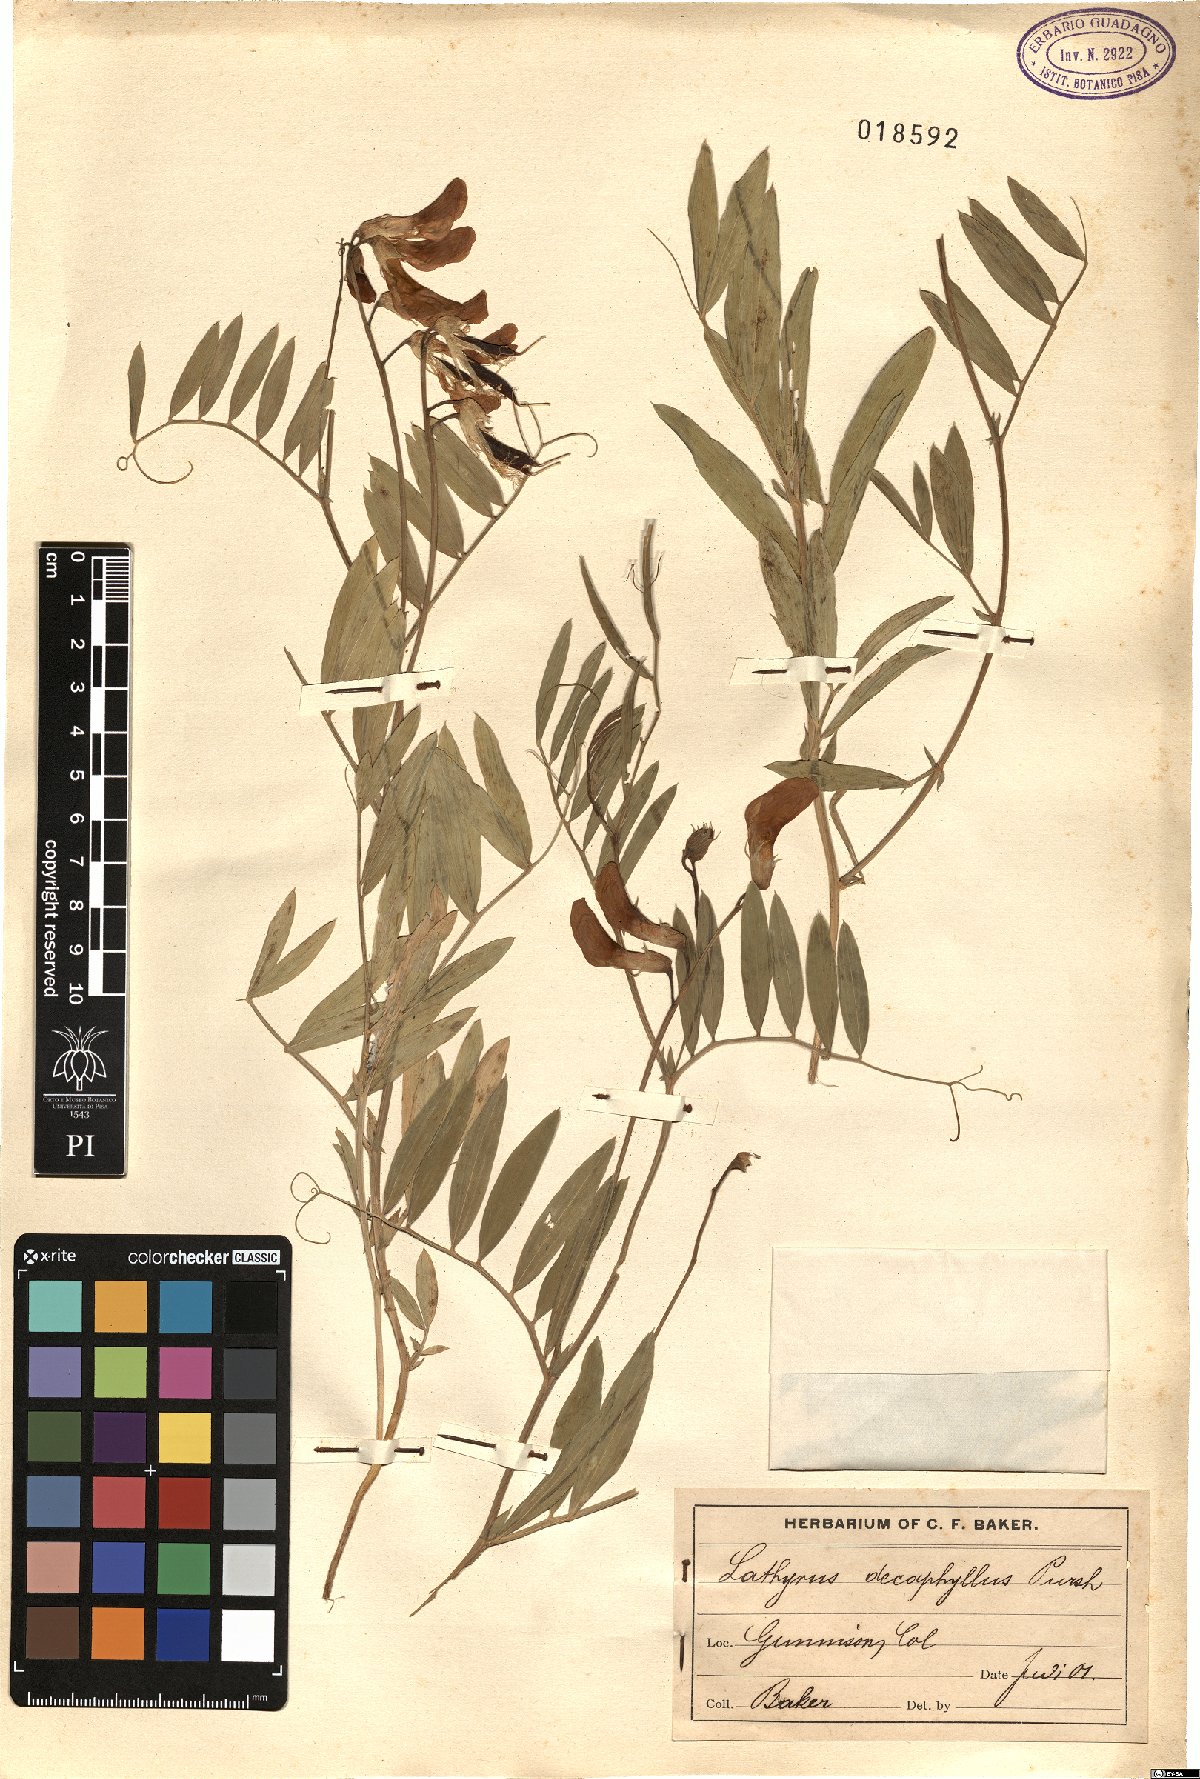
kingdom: Plantae
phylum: Tracheophyta
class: Magnoliopsida
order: Fabales
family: Fabaceae
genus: Lathyrus
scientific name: Lathyrus decaphyllus
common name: Prairie vetchling
